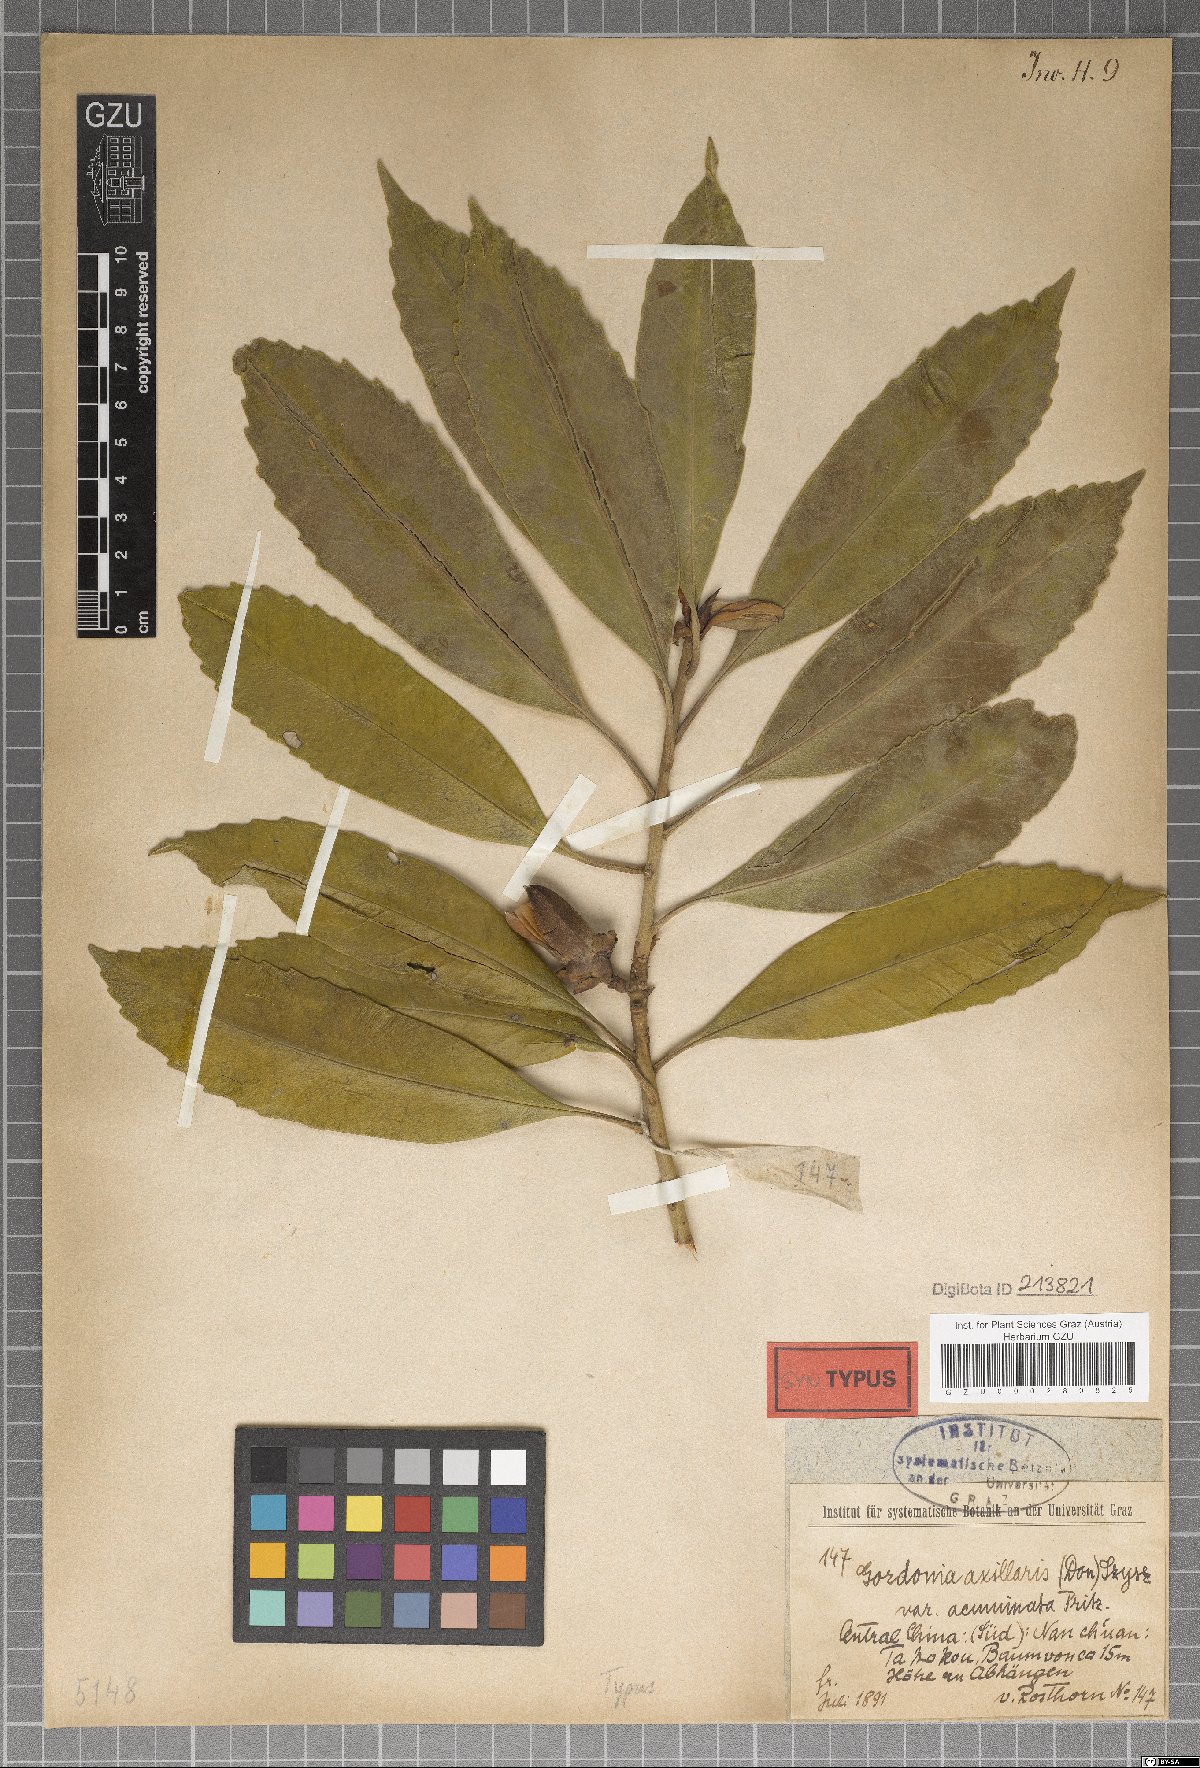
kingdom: Plantae
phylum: Tracheophyta
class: Magnoliopsida
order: Ericales
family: Theaceae
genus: Polyspora
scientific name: Polyspora speciosa
